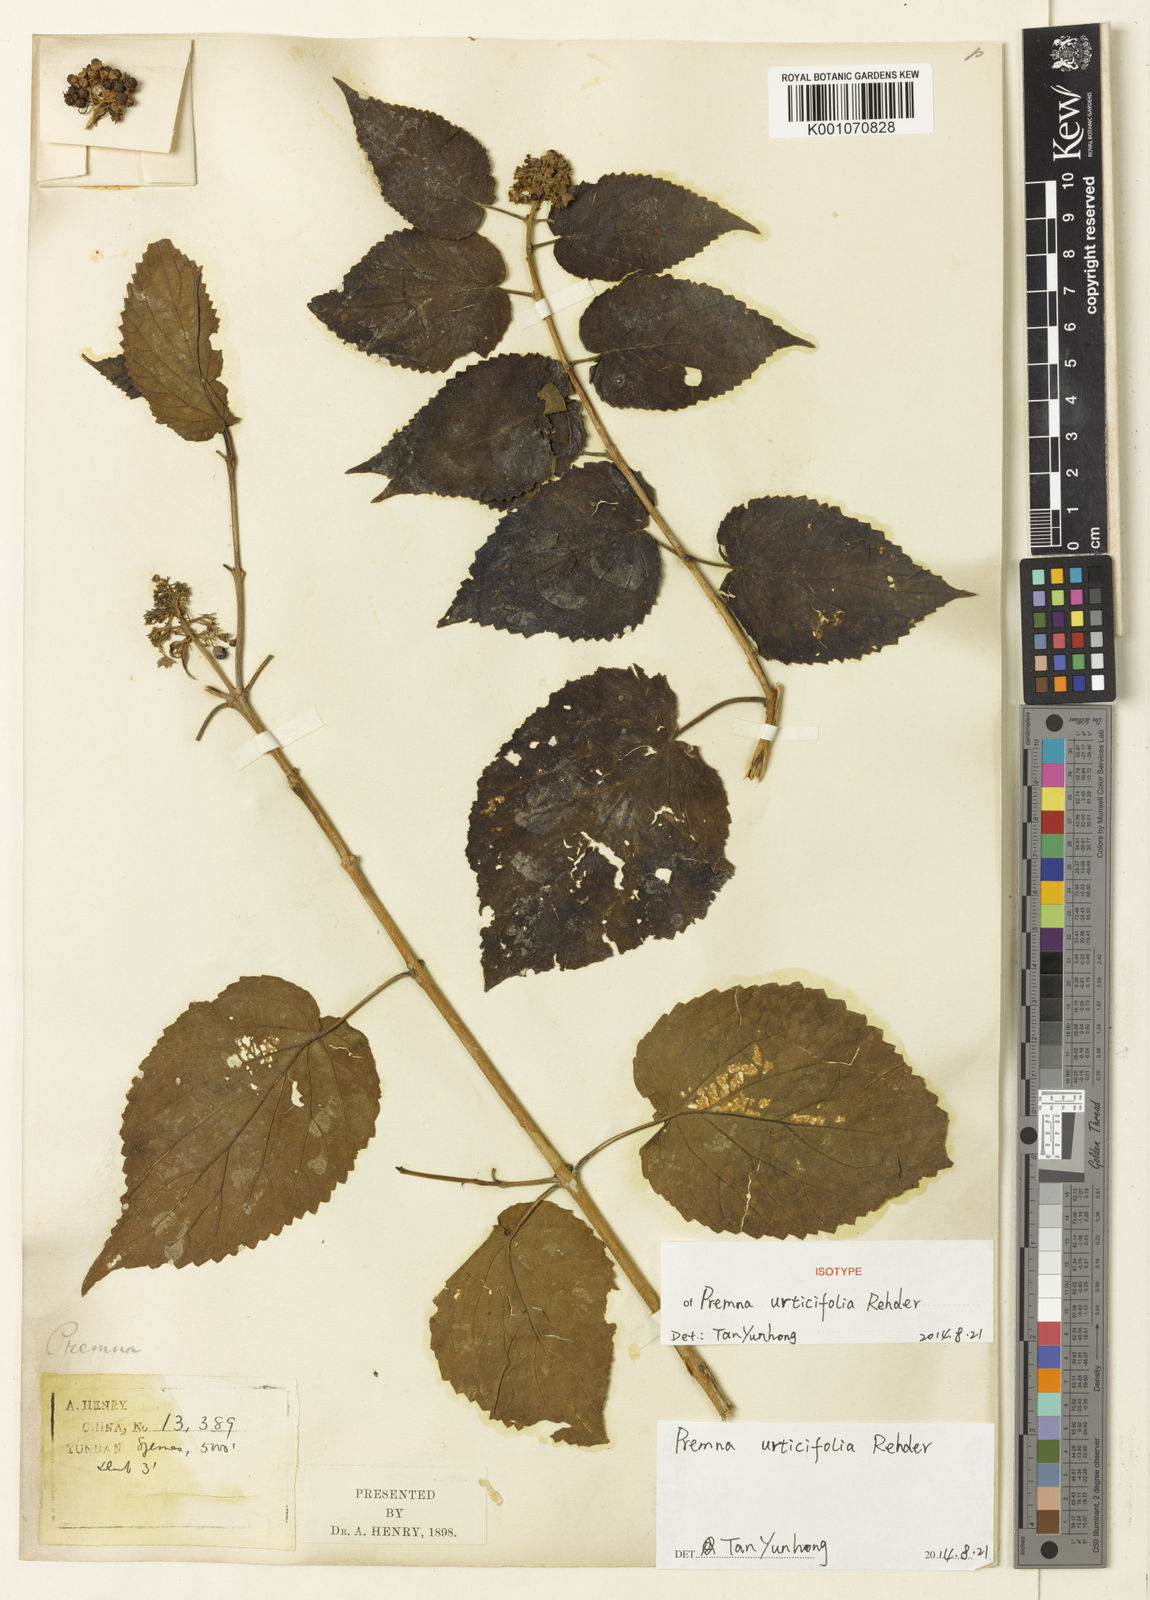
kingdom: Plantae
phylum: Tracheophyta
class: Magnoliopsida
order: Lamiales
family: Lamiaceae
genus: Premna
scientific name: Premna urticifolia
